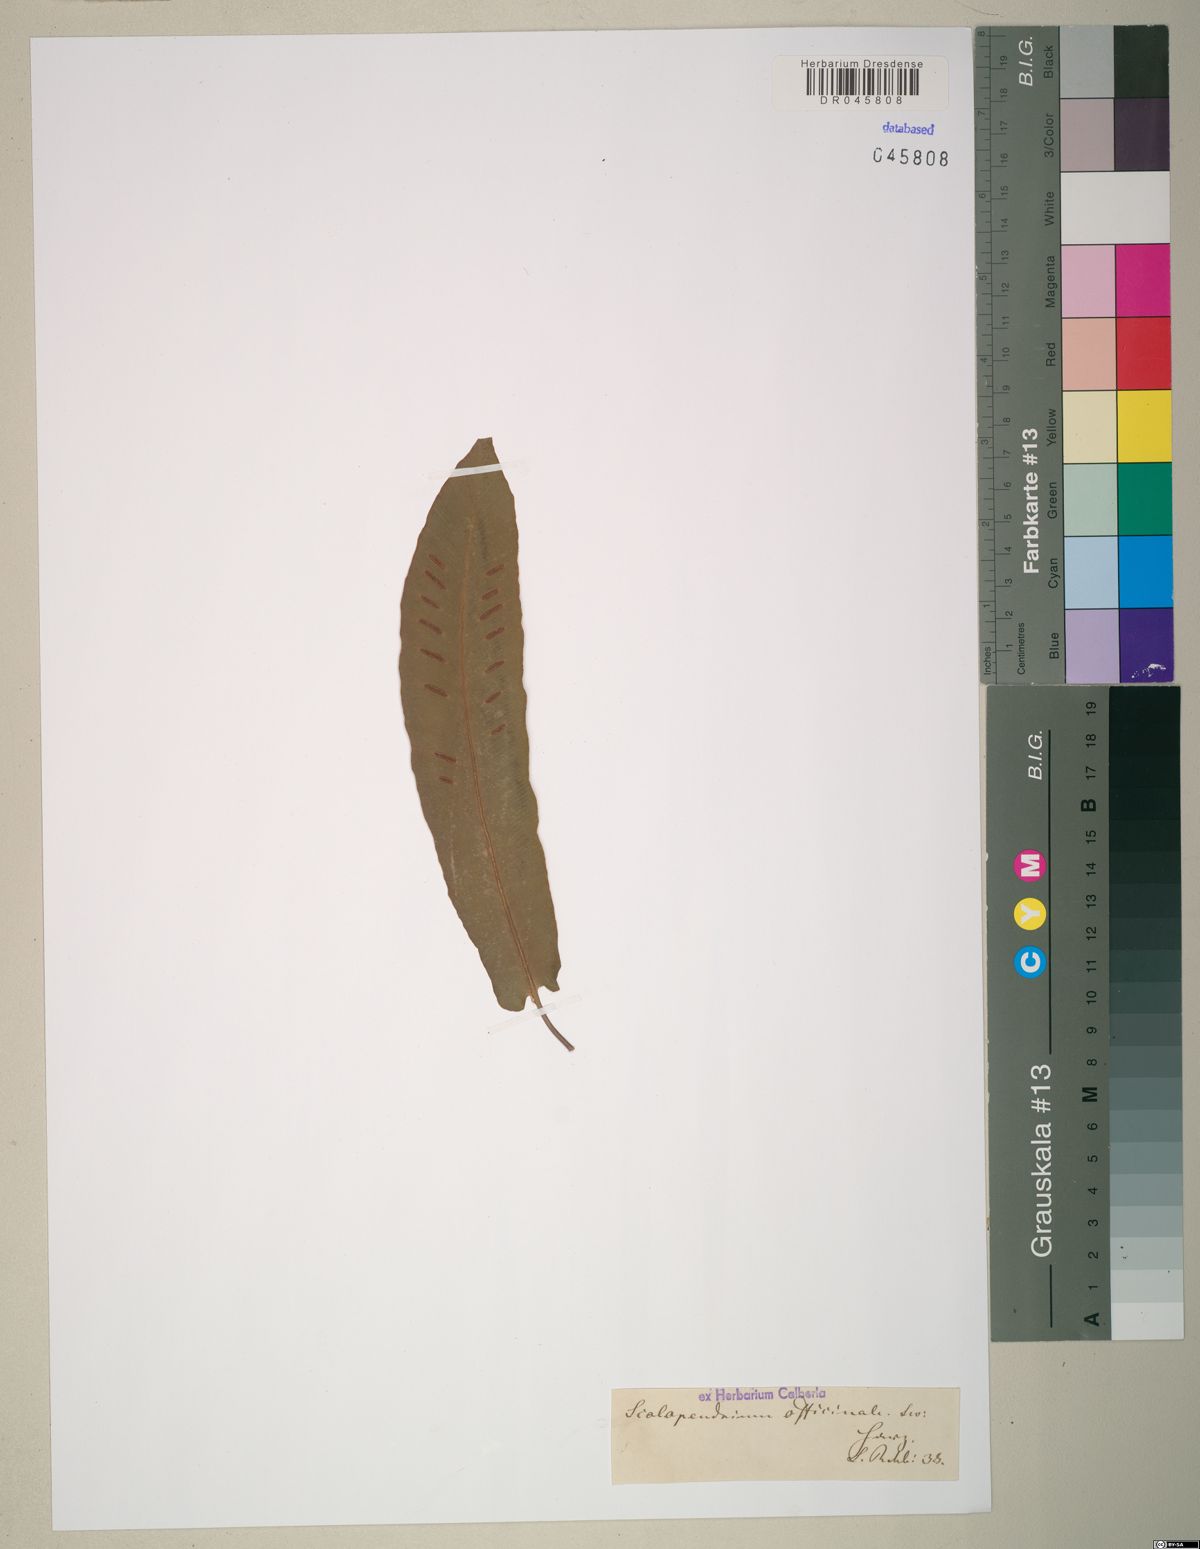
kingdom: Plantae
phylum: Tracheophyta
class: Polypodiopsida
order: Polypodiales
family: Aspleniaceae
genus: Asplenium
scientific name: Asplenium scolopendrium
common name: Hart's-tongue fern
